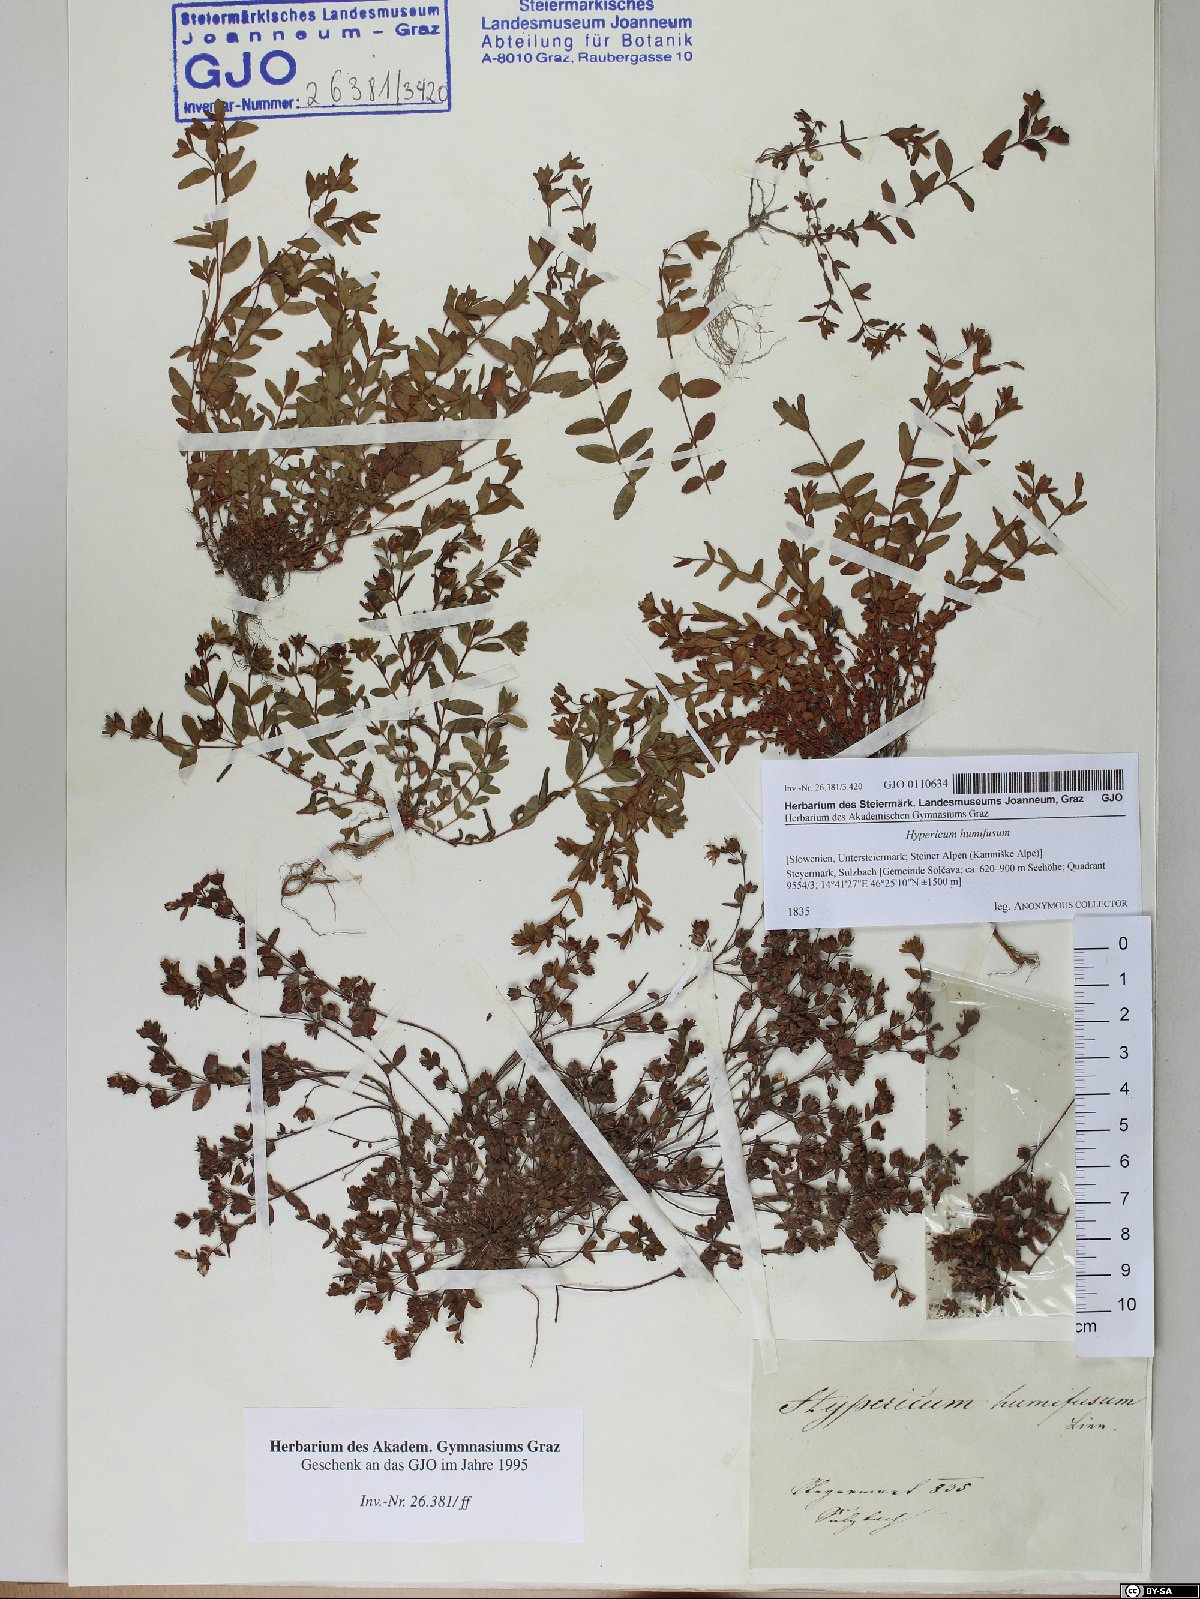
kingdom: Plantae
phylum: Tracheophyta
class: Magnoliopsida
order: Malpighiales
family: Hypericaceae
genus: Hypericum
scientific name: Hypericum humifusum
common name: Trailing st. john's-wort
